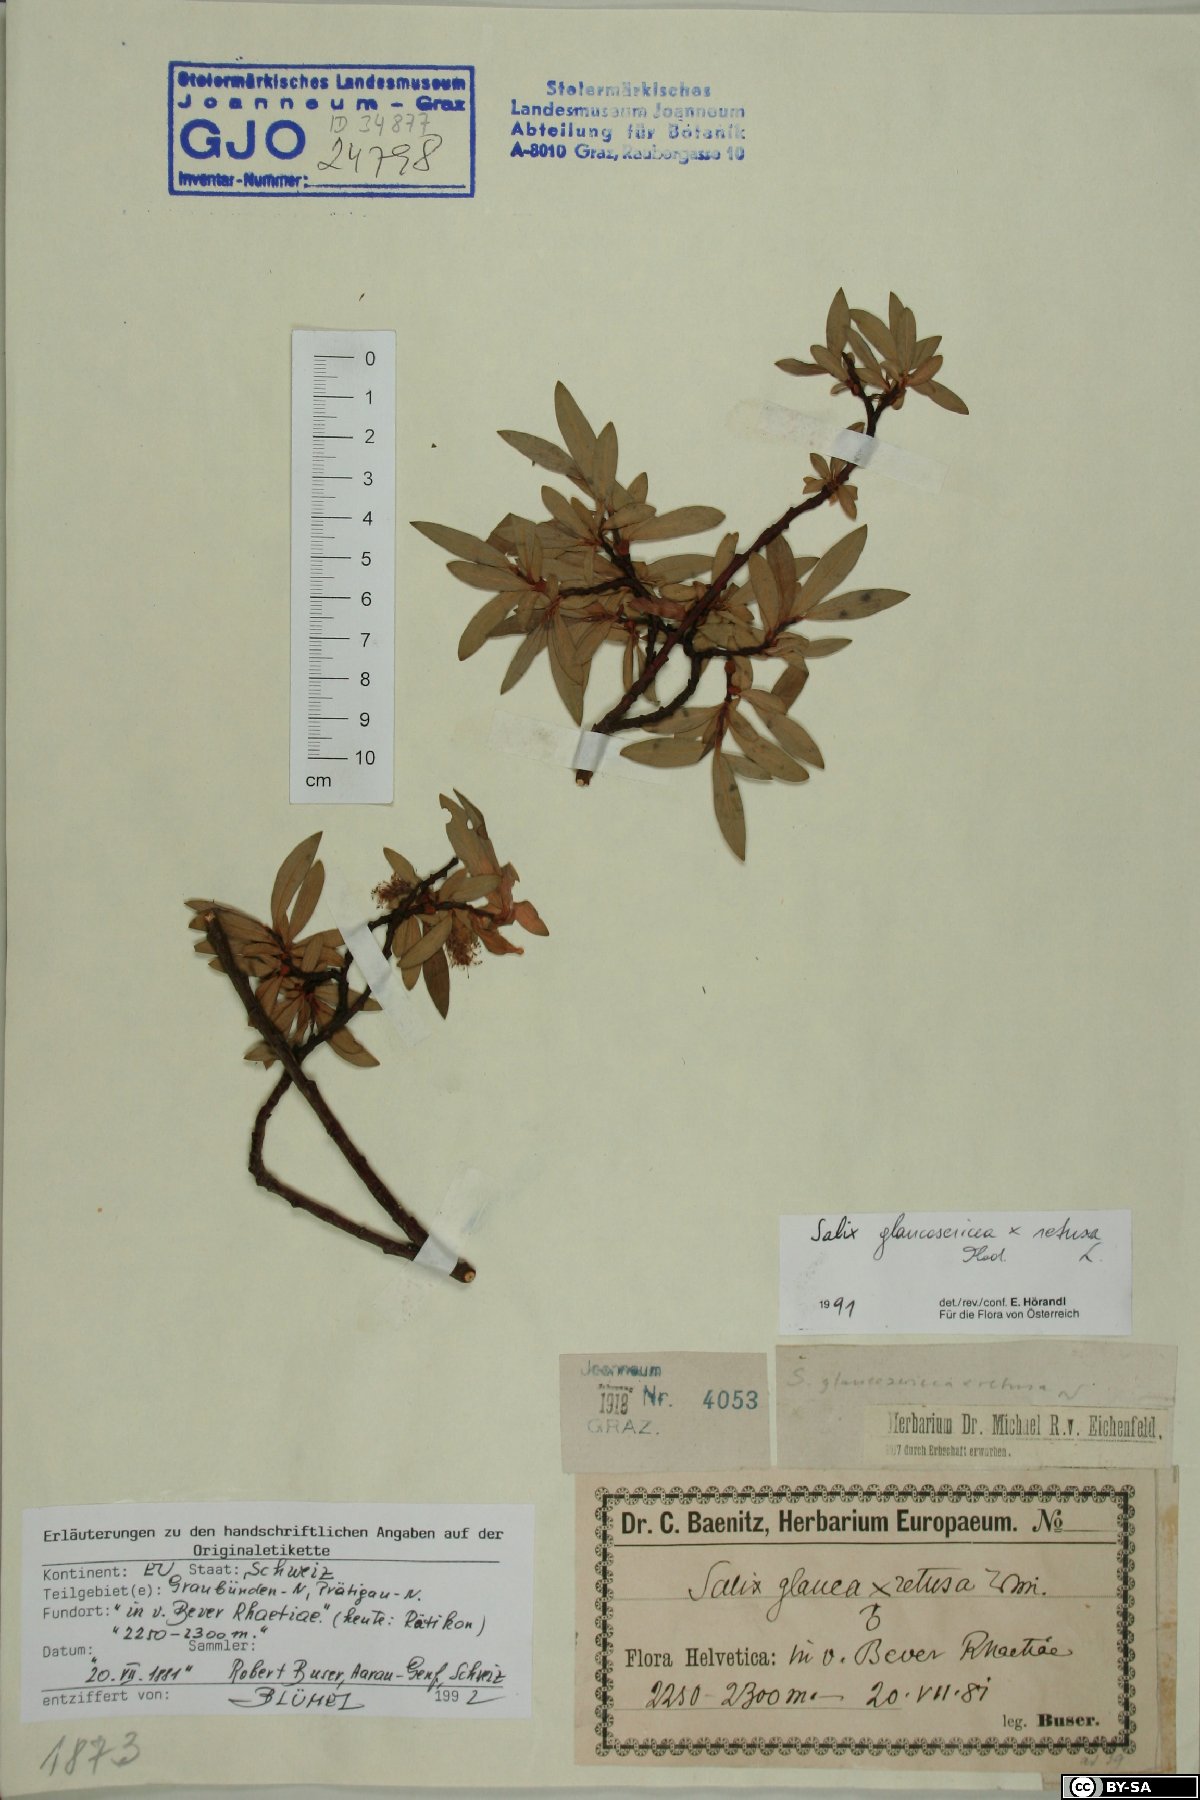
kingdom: Plantae
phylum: Tracheophyta
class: Magnoliopsida
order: Malpighiales
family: Salicaceae
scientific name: Salicaceae
